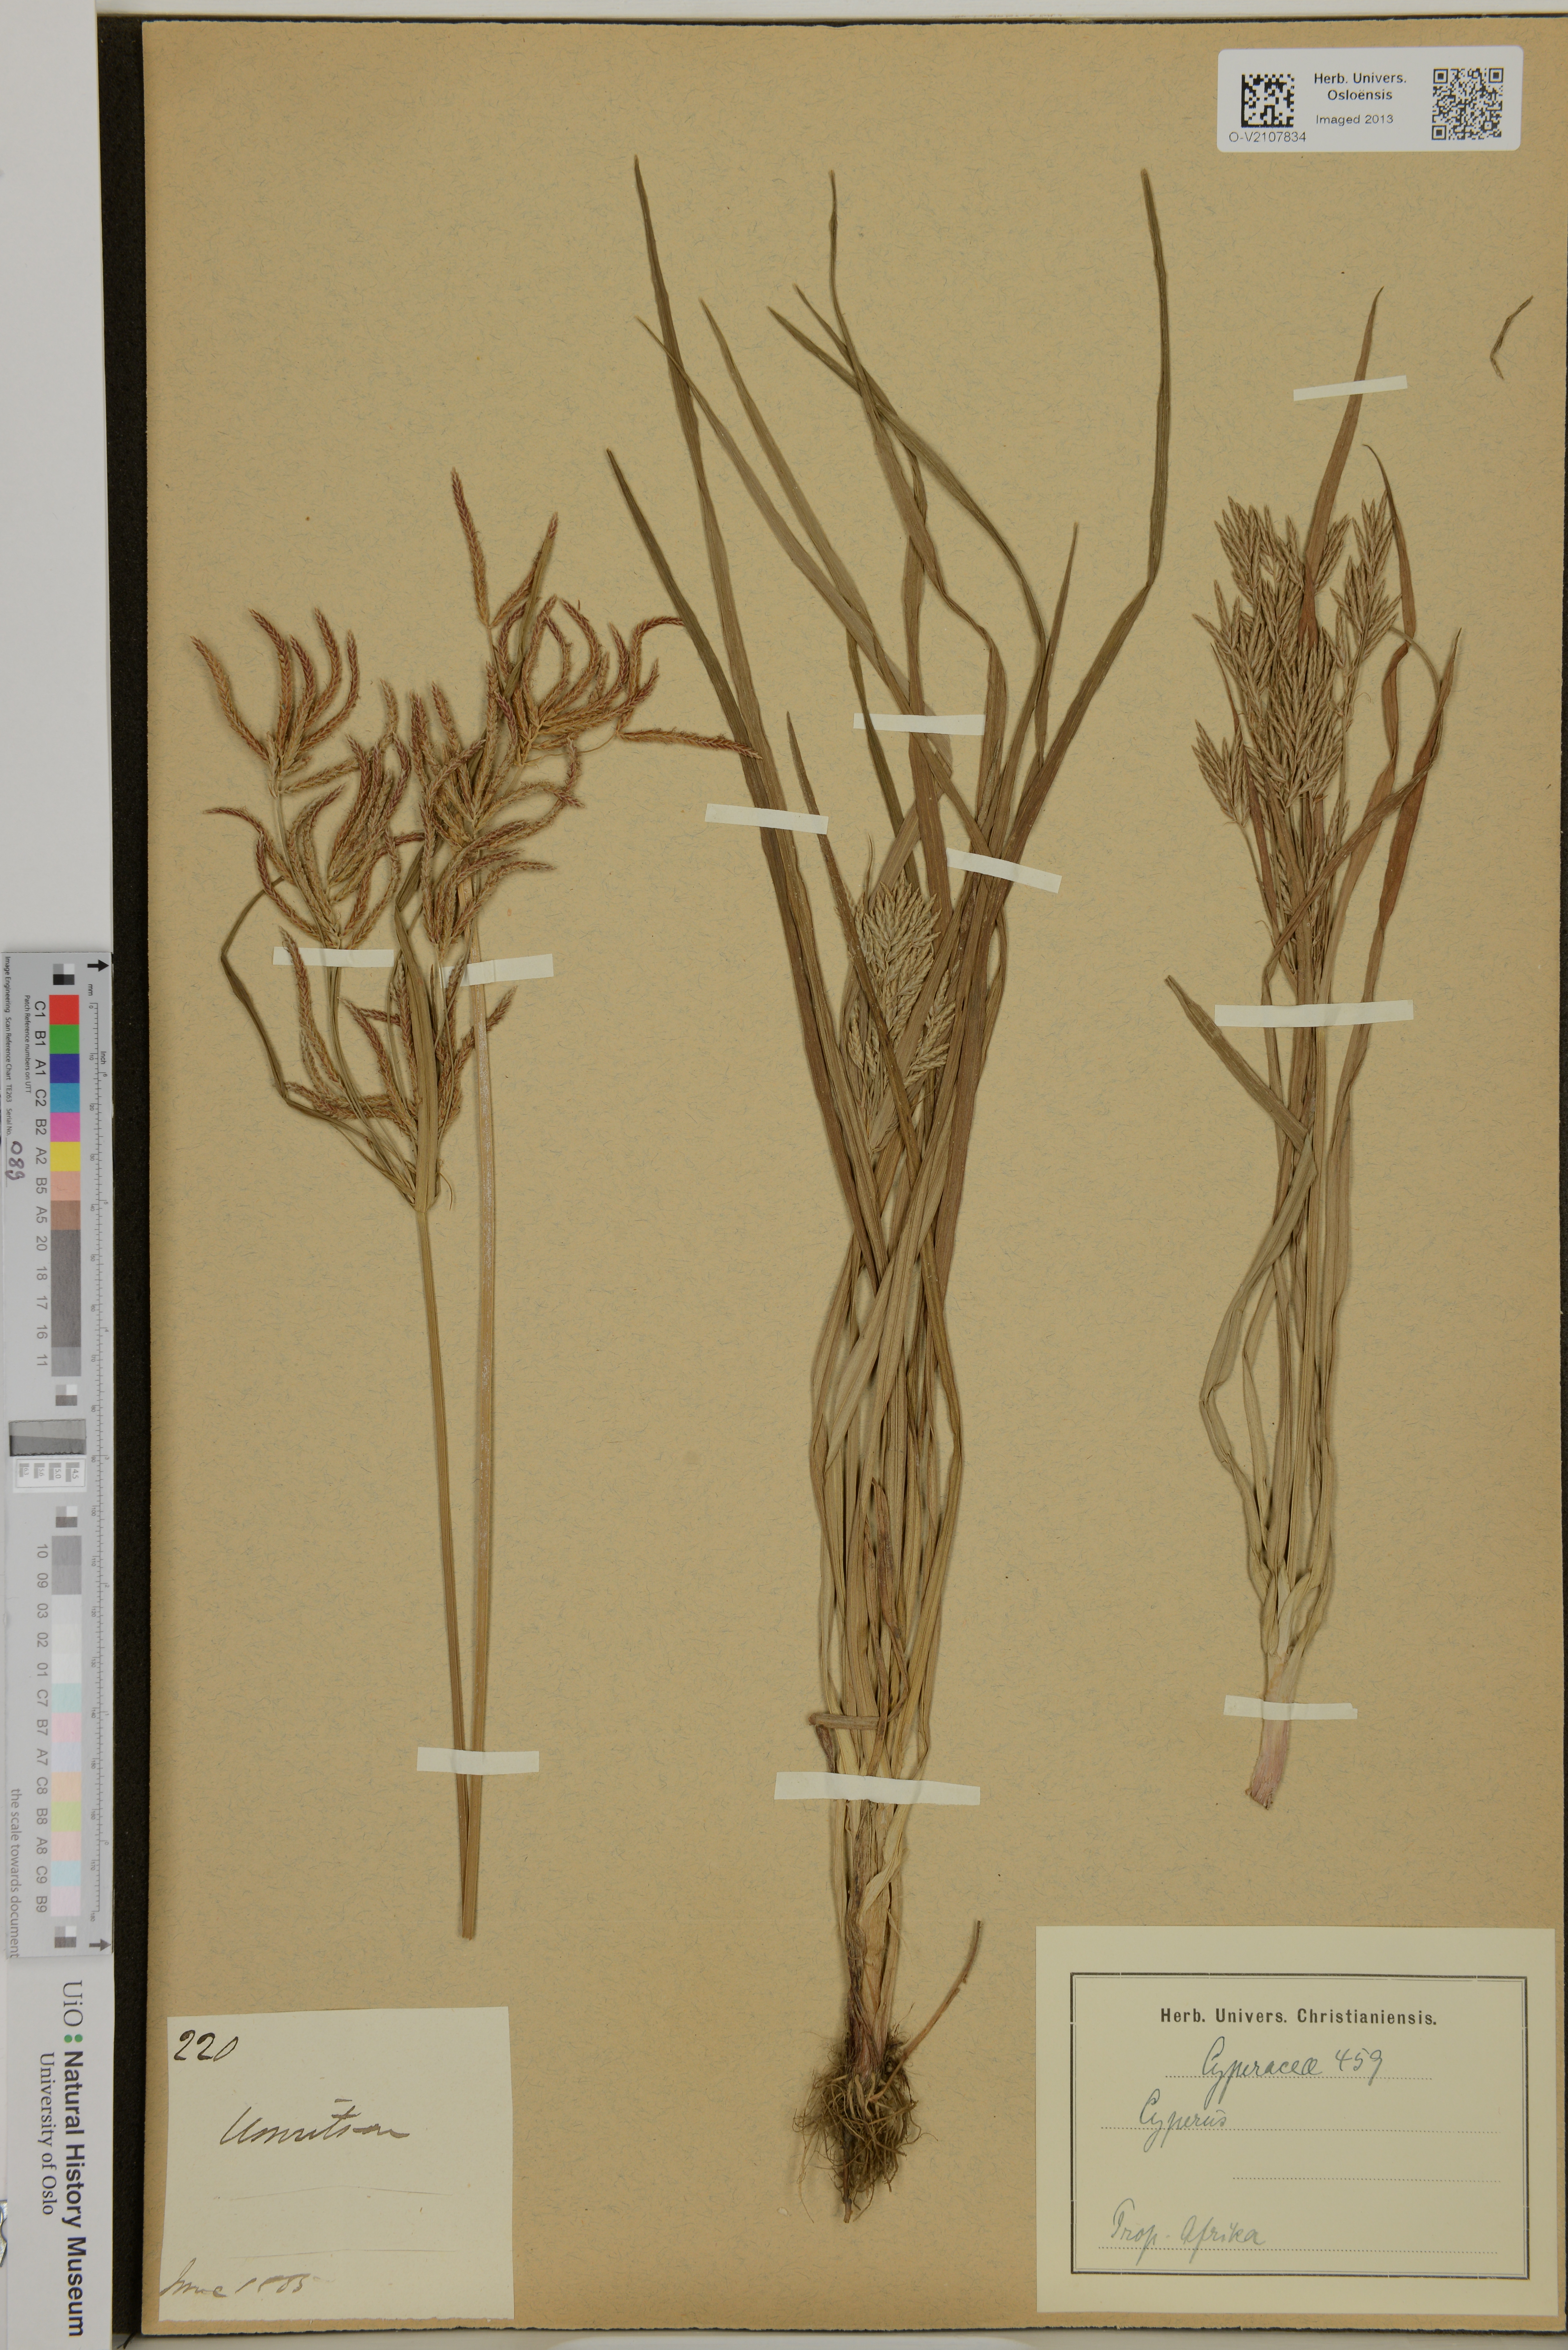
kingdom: Plantae
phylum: Tracheophyta
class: Liliopsida
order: Poales
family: Cyperaceae
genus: Cyperus
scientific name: Cyperus
